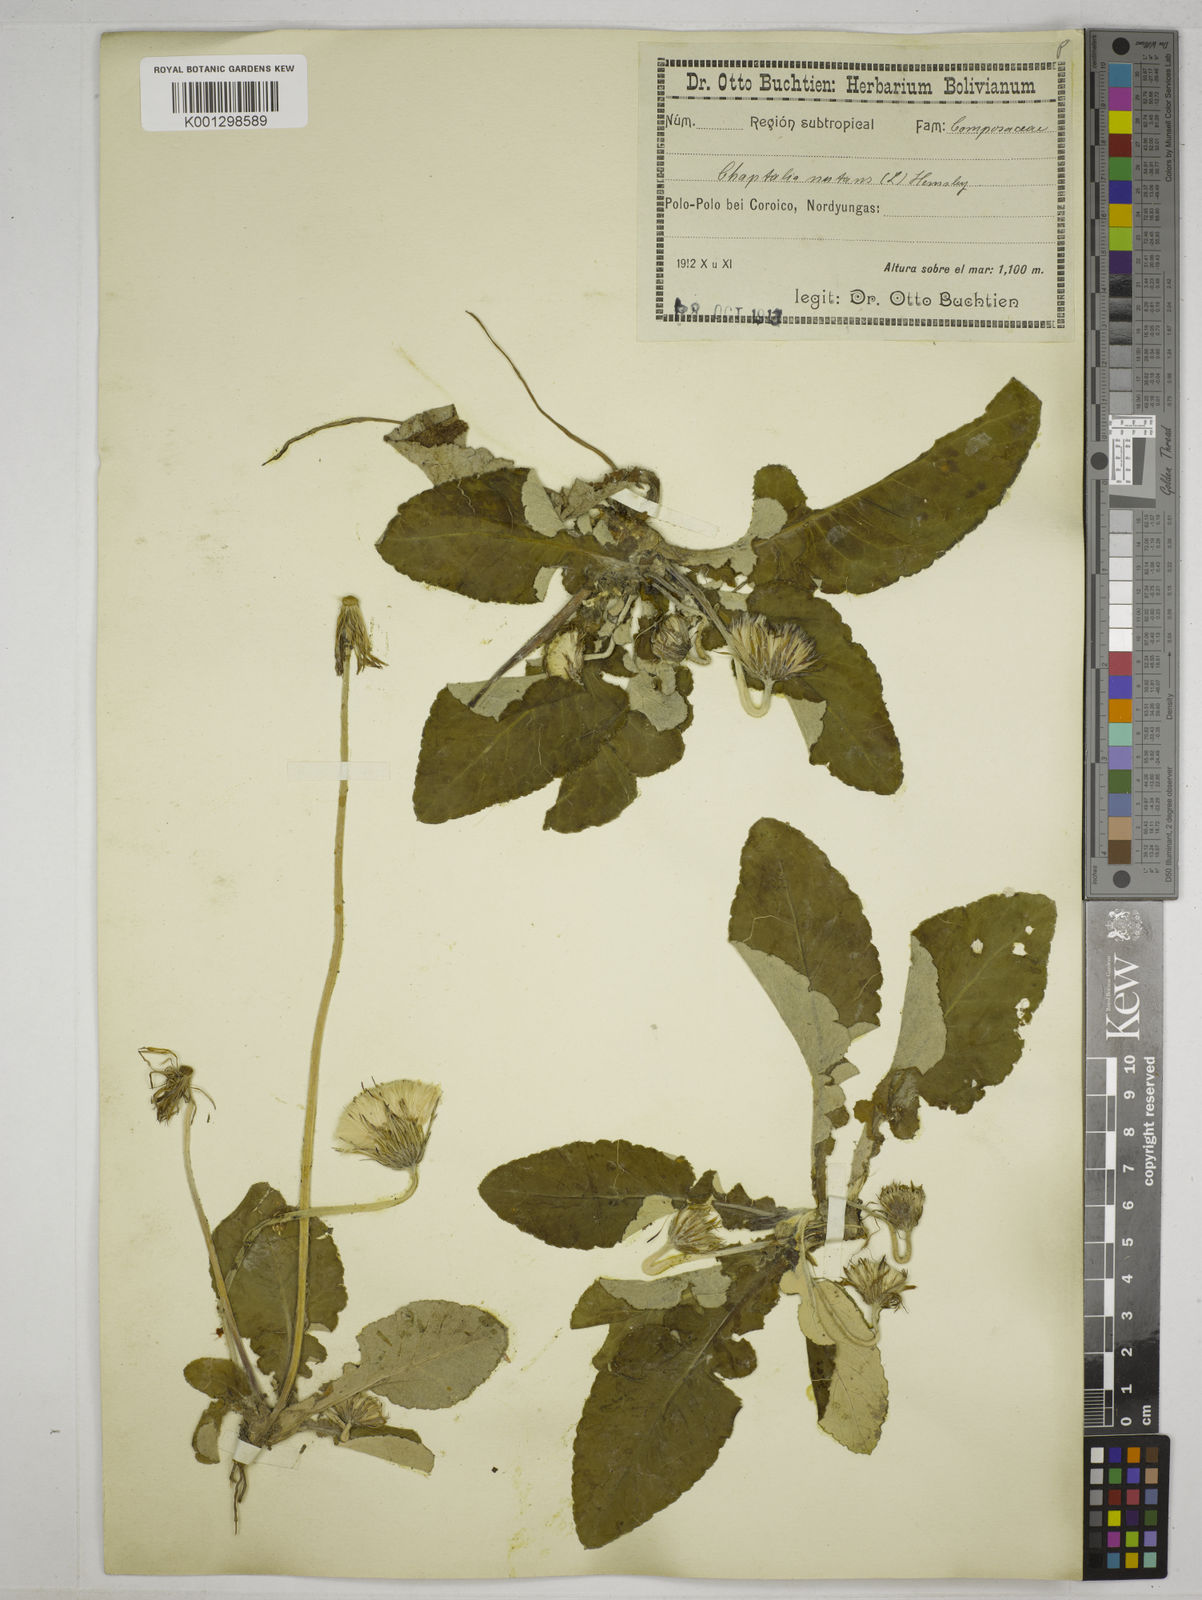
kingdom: Plantae
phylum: Tracheophyta
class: Magnoliopsida
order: Asterales
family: Asteraceae
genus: Chaptalia
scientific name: Chaptalia nutans
